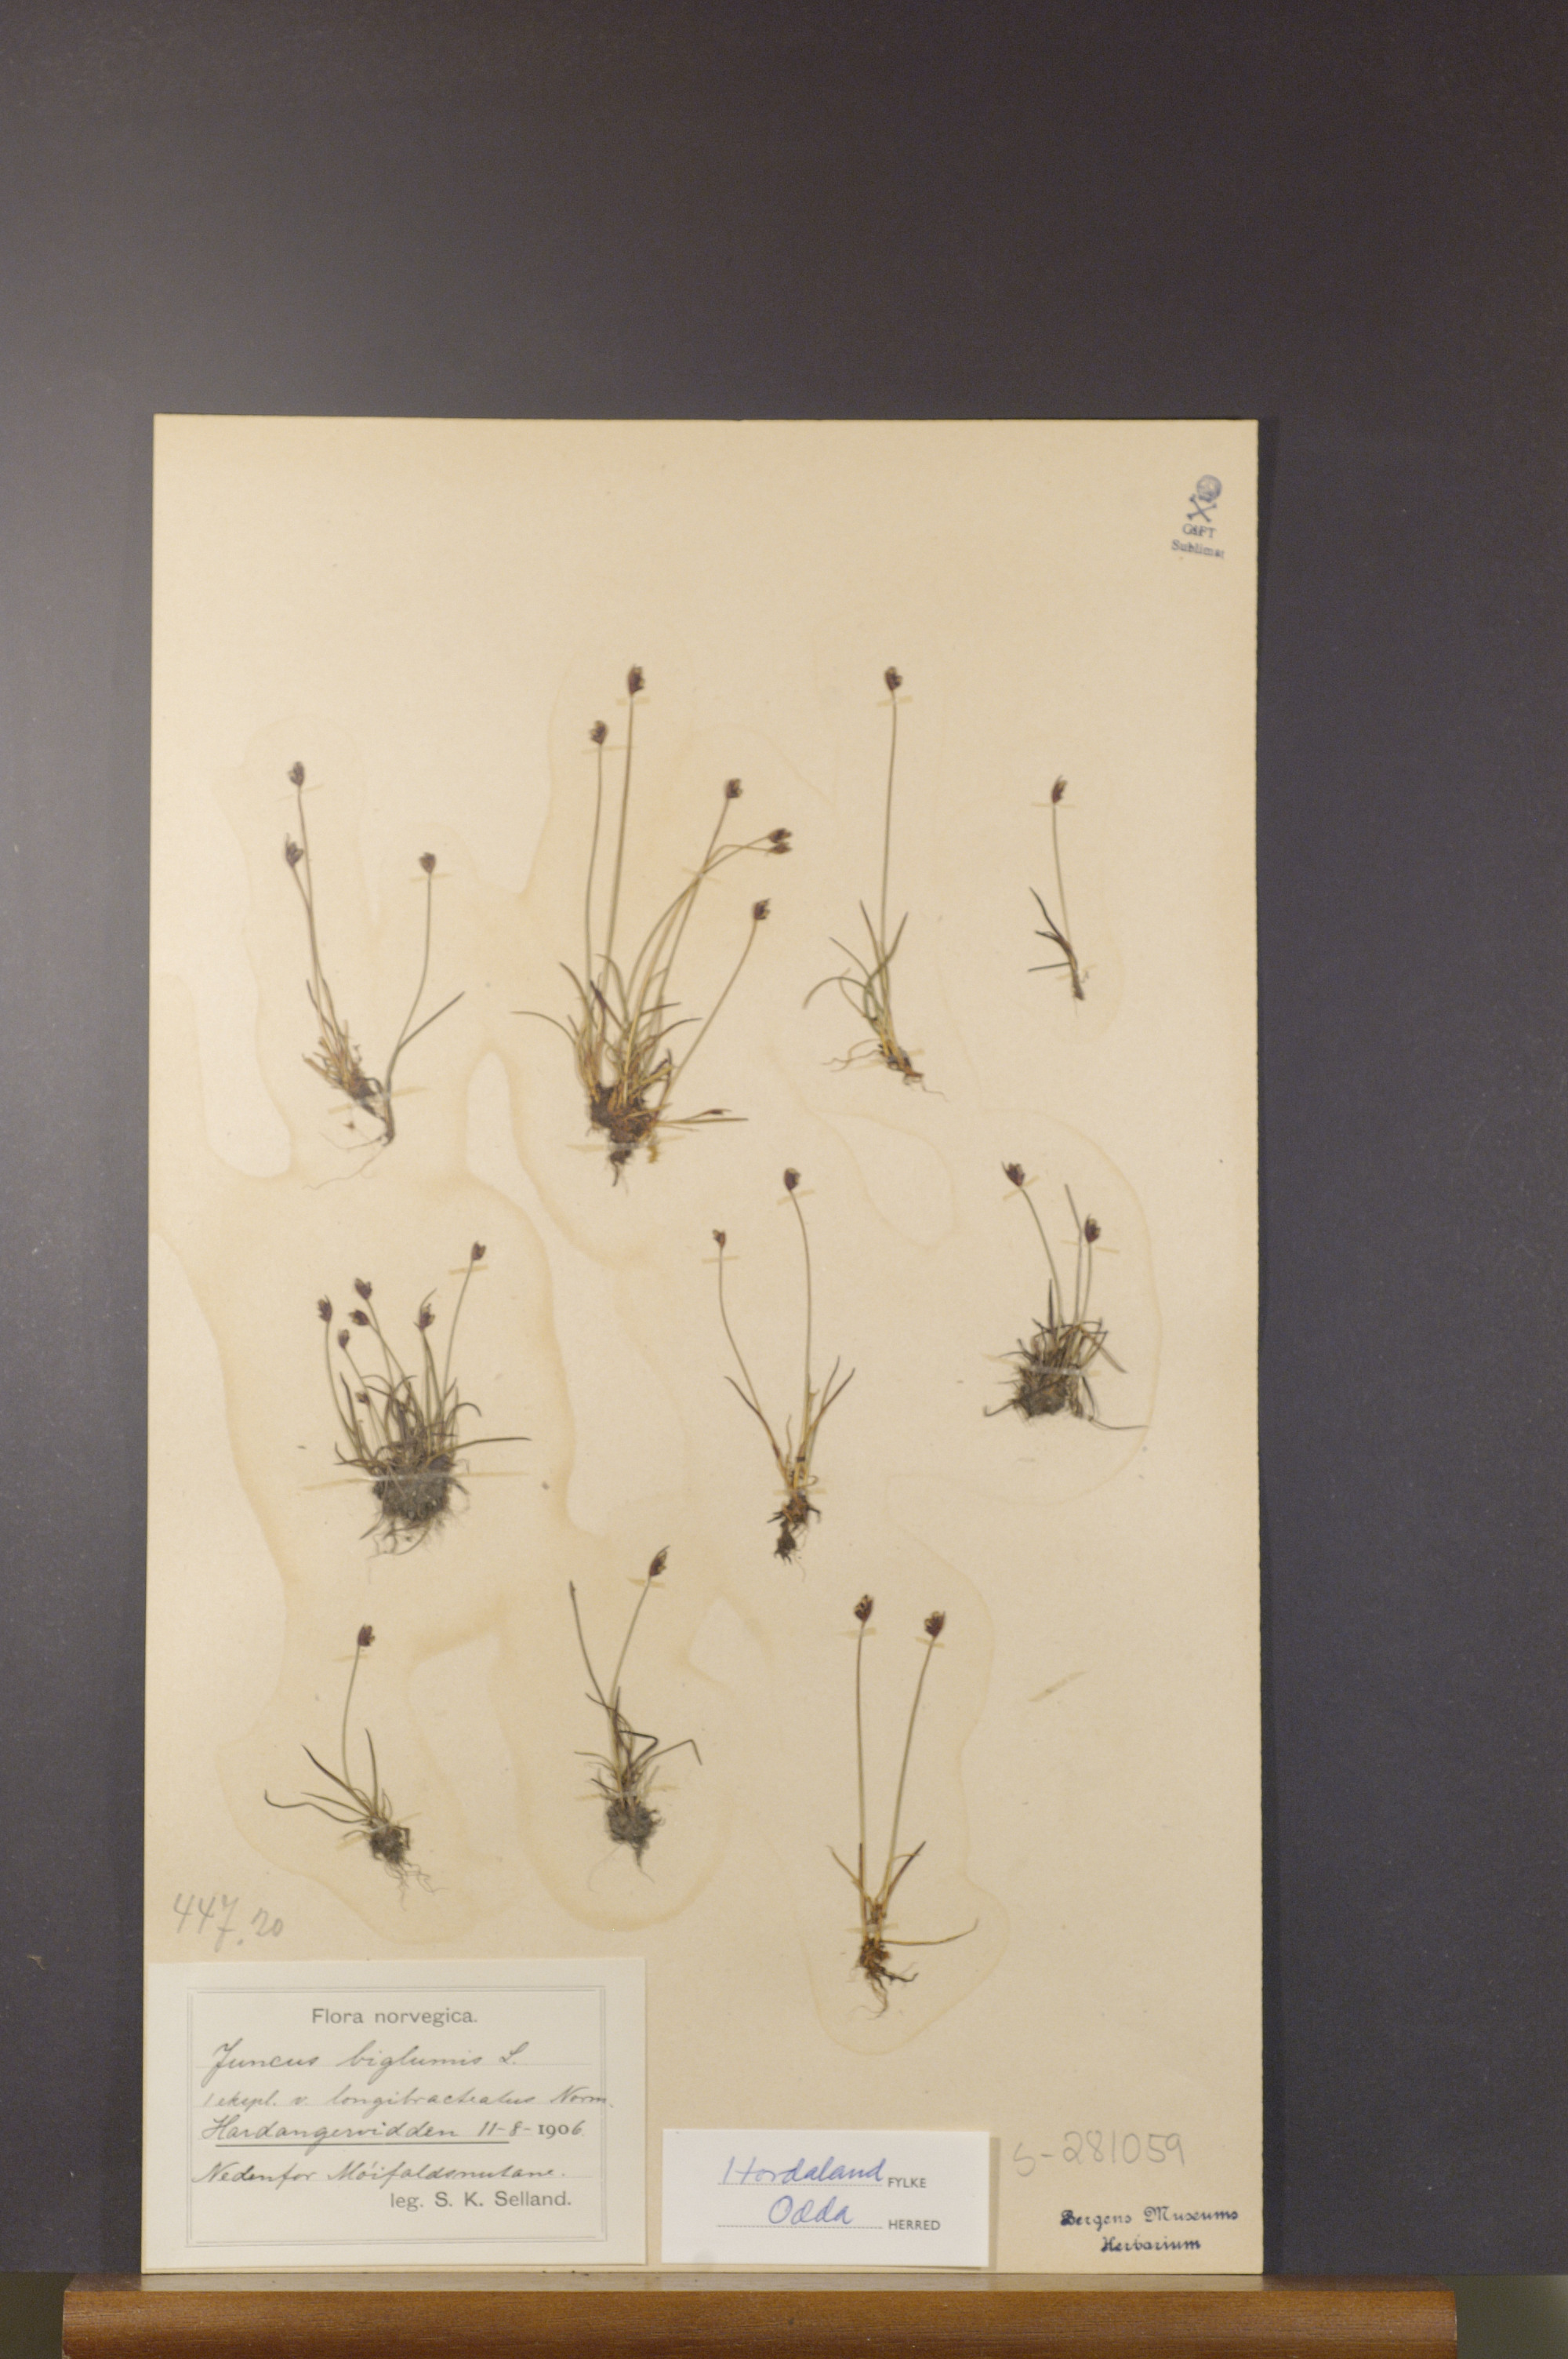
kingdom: Plantae
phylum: Tracheophyta
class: Liliopsida
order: Poales
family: Juncaceae
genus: Juncus
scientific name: Juncus biglumis
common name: Two-flowered rush
